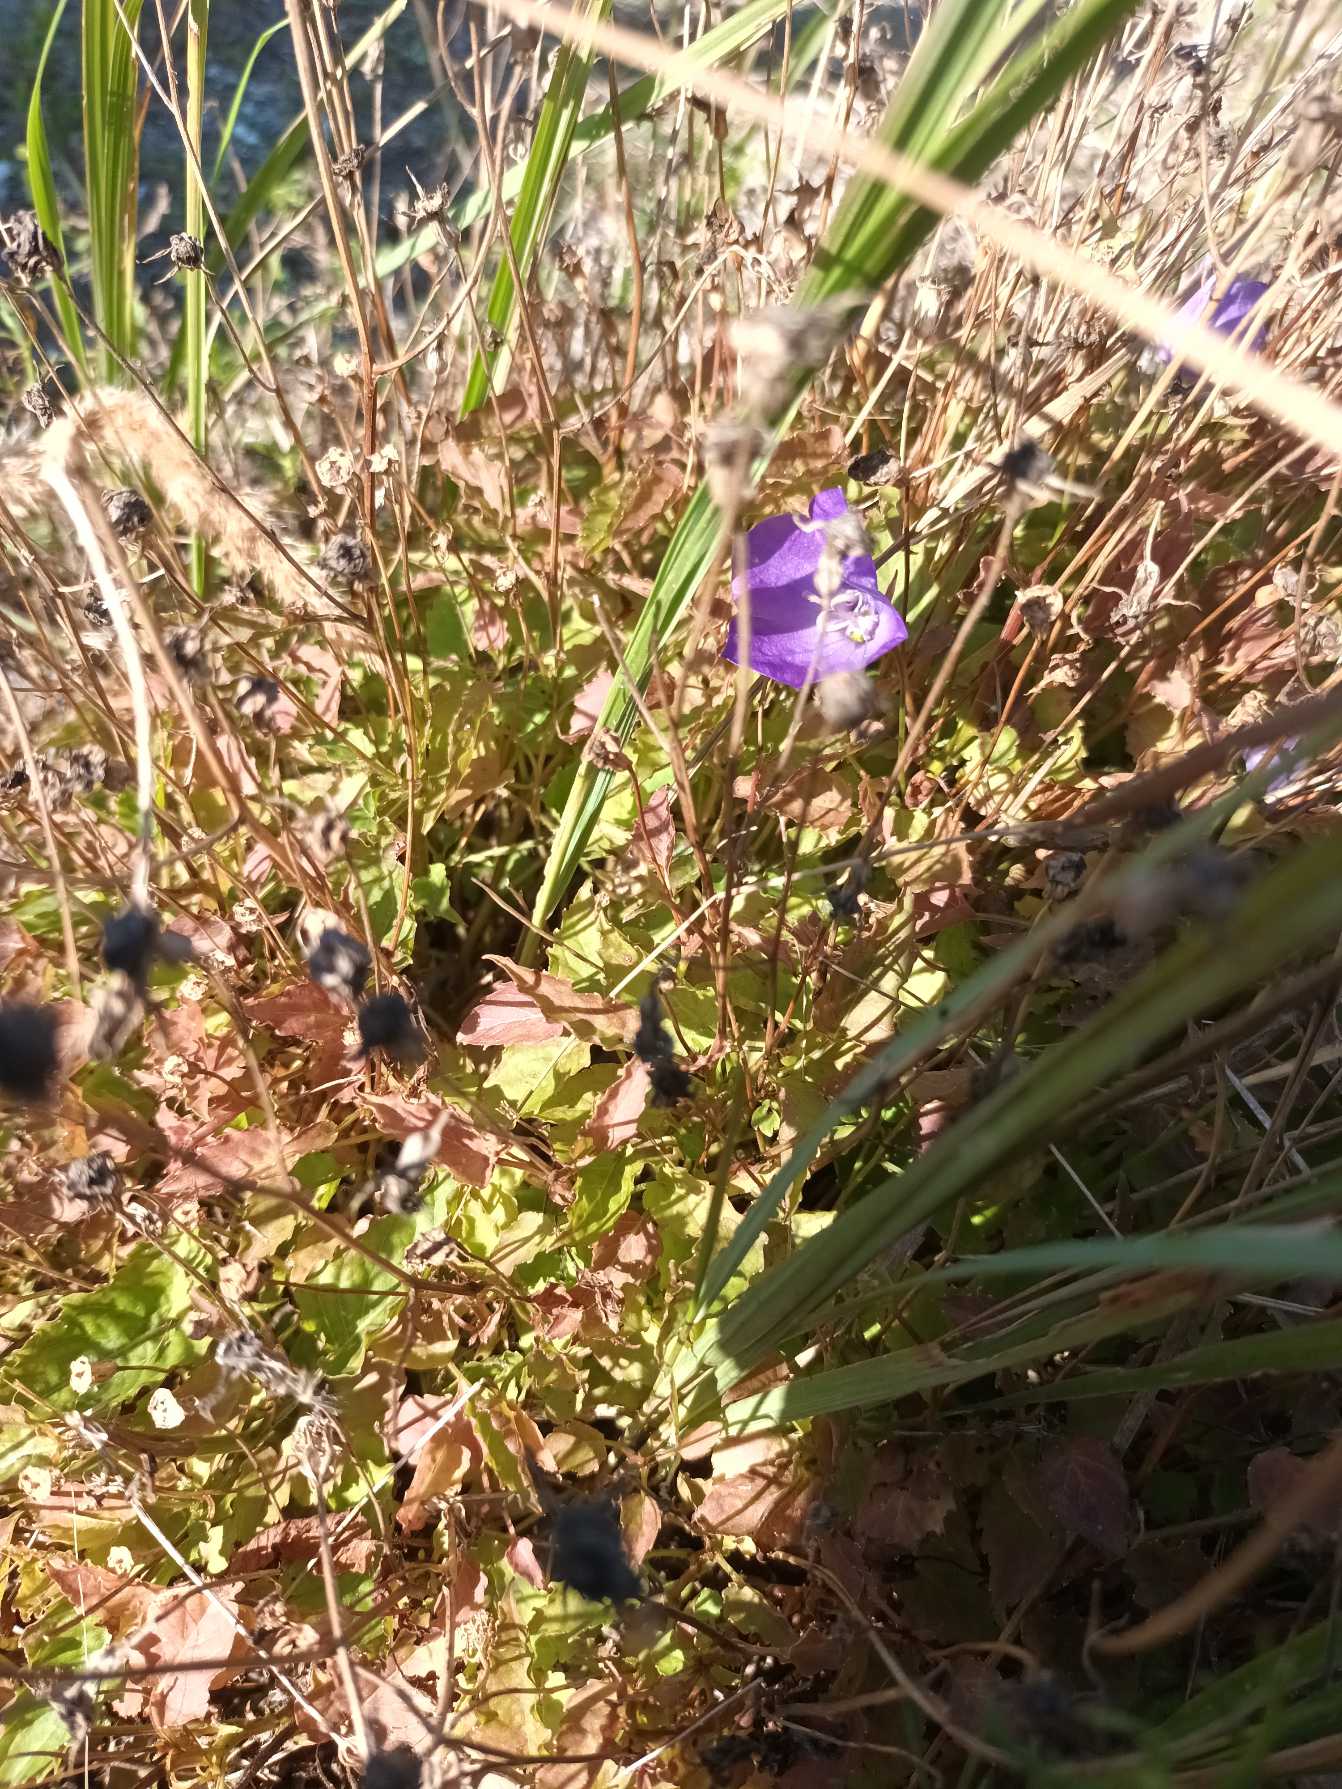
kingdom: Plantae
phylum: Tracheophyta
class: Magnoliopsida
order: Asterales
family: Campanulaceae
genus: Campanula
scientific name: Campanula carpatica
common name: Karpater-klokke
